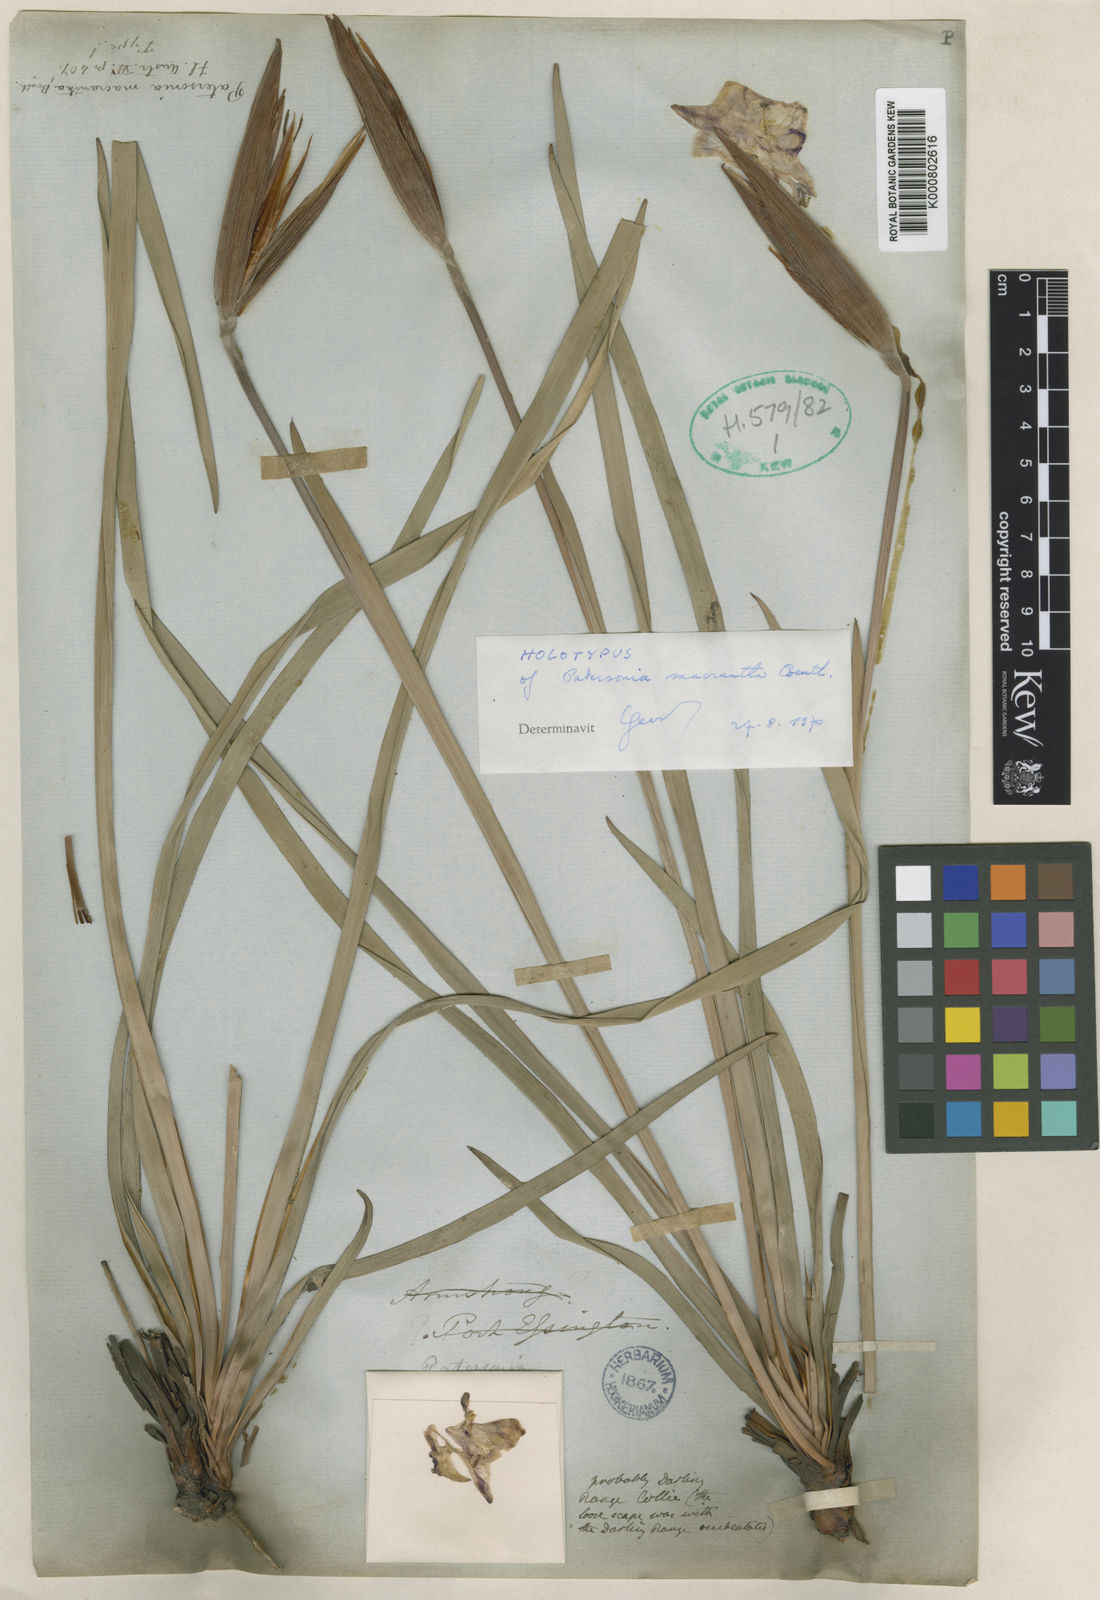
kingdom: Plantae
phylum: Tracheophyta
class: Liliopsida
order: Asparagales
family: Iridaceae
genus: Patersonia
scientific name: Patersonia macrantha
